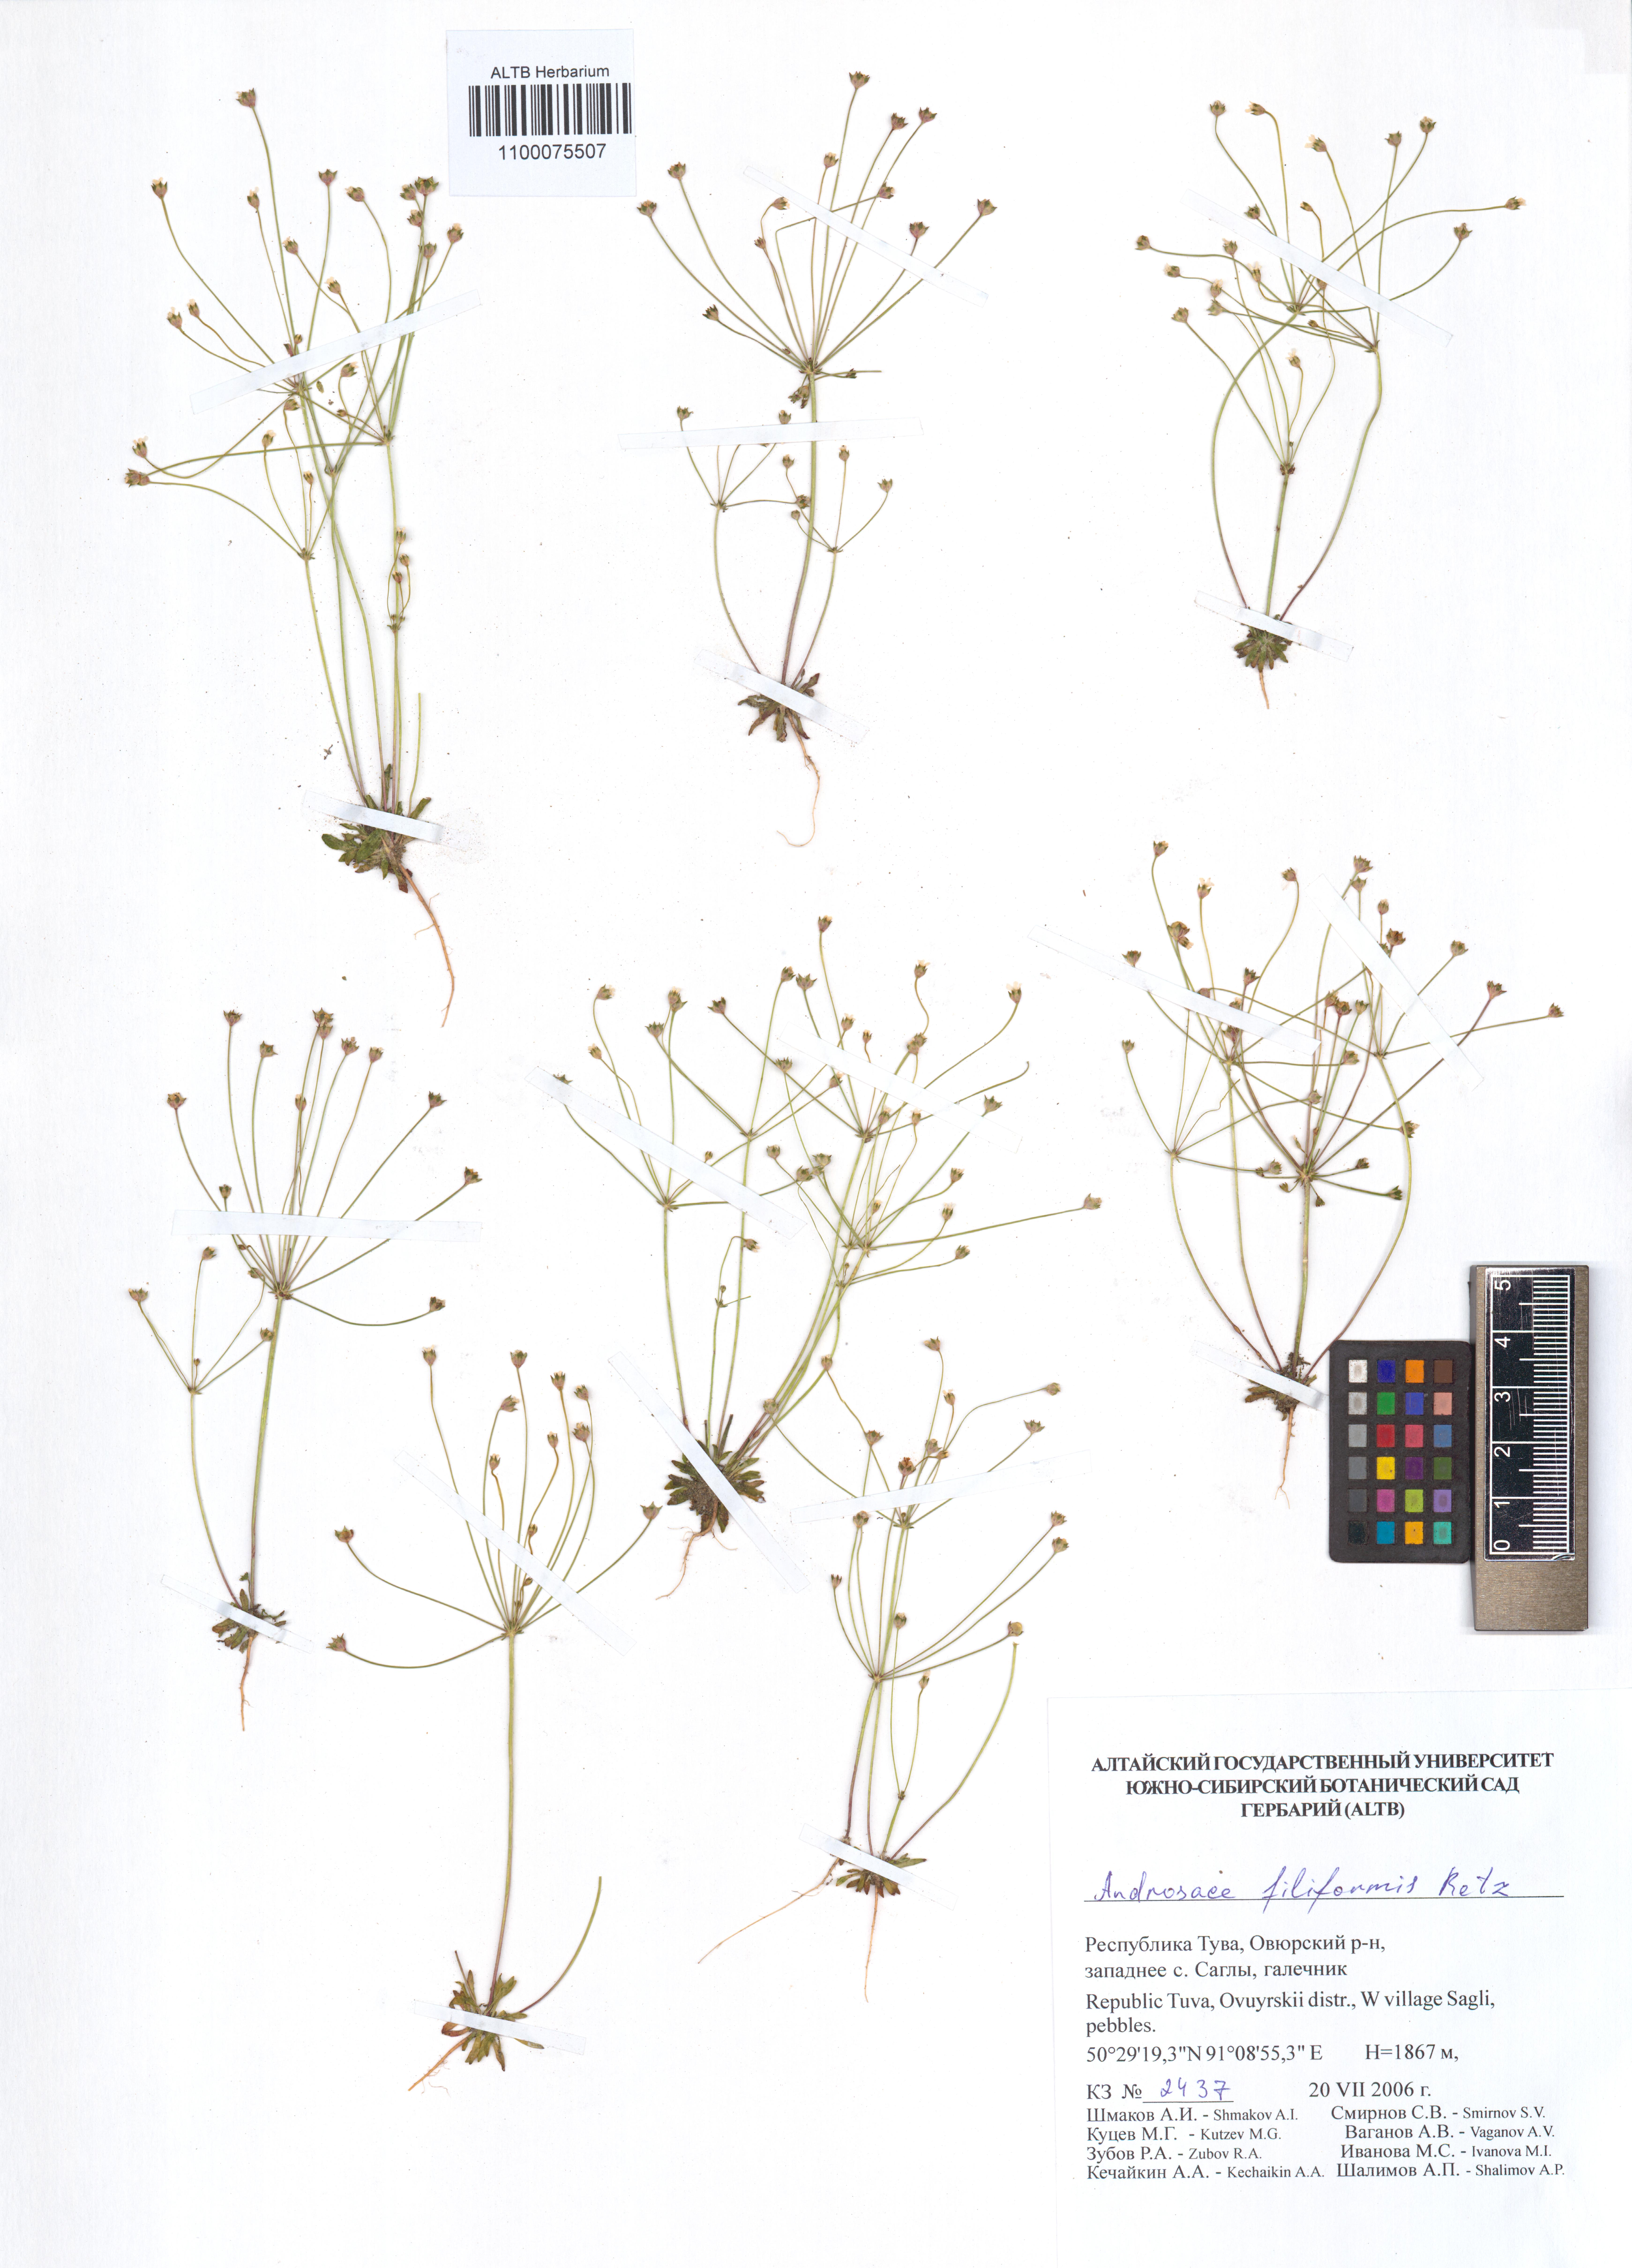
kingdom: Plantae
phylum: Tracheophyta
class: Magnoliopsida
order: Ericales
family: Primulaceae
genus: Androsace
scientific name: Androsace filiformis
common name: Filiform rock jasmine
